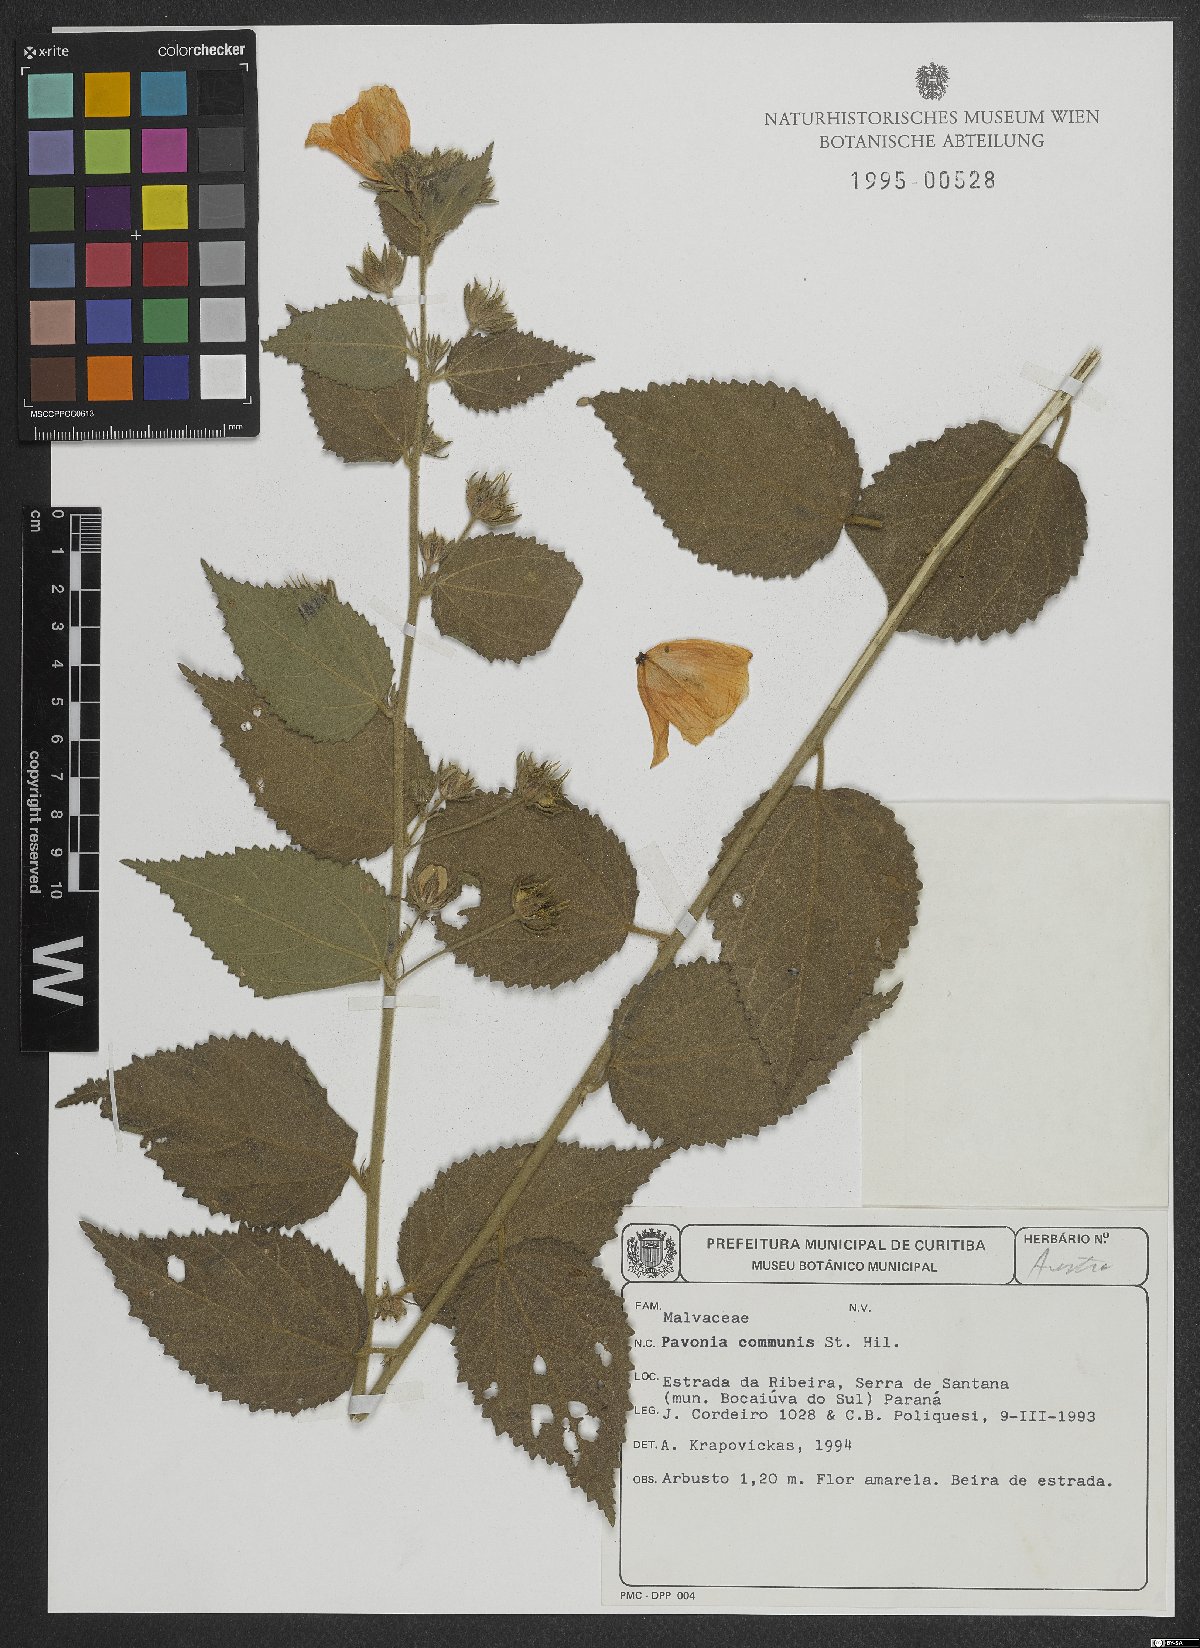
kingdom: Plantae
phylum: Tracheophyta
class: Magnoliopsida
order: Malvales
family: Malvaceae
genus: Pavonia
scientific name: Pavonia communis
